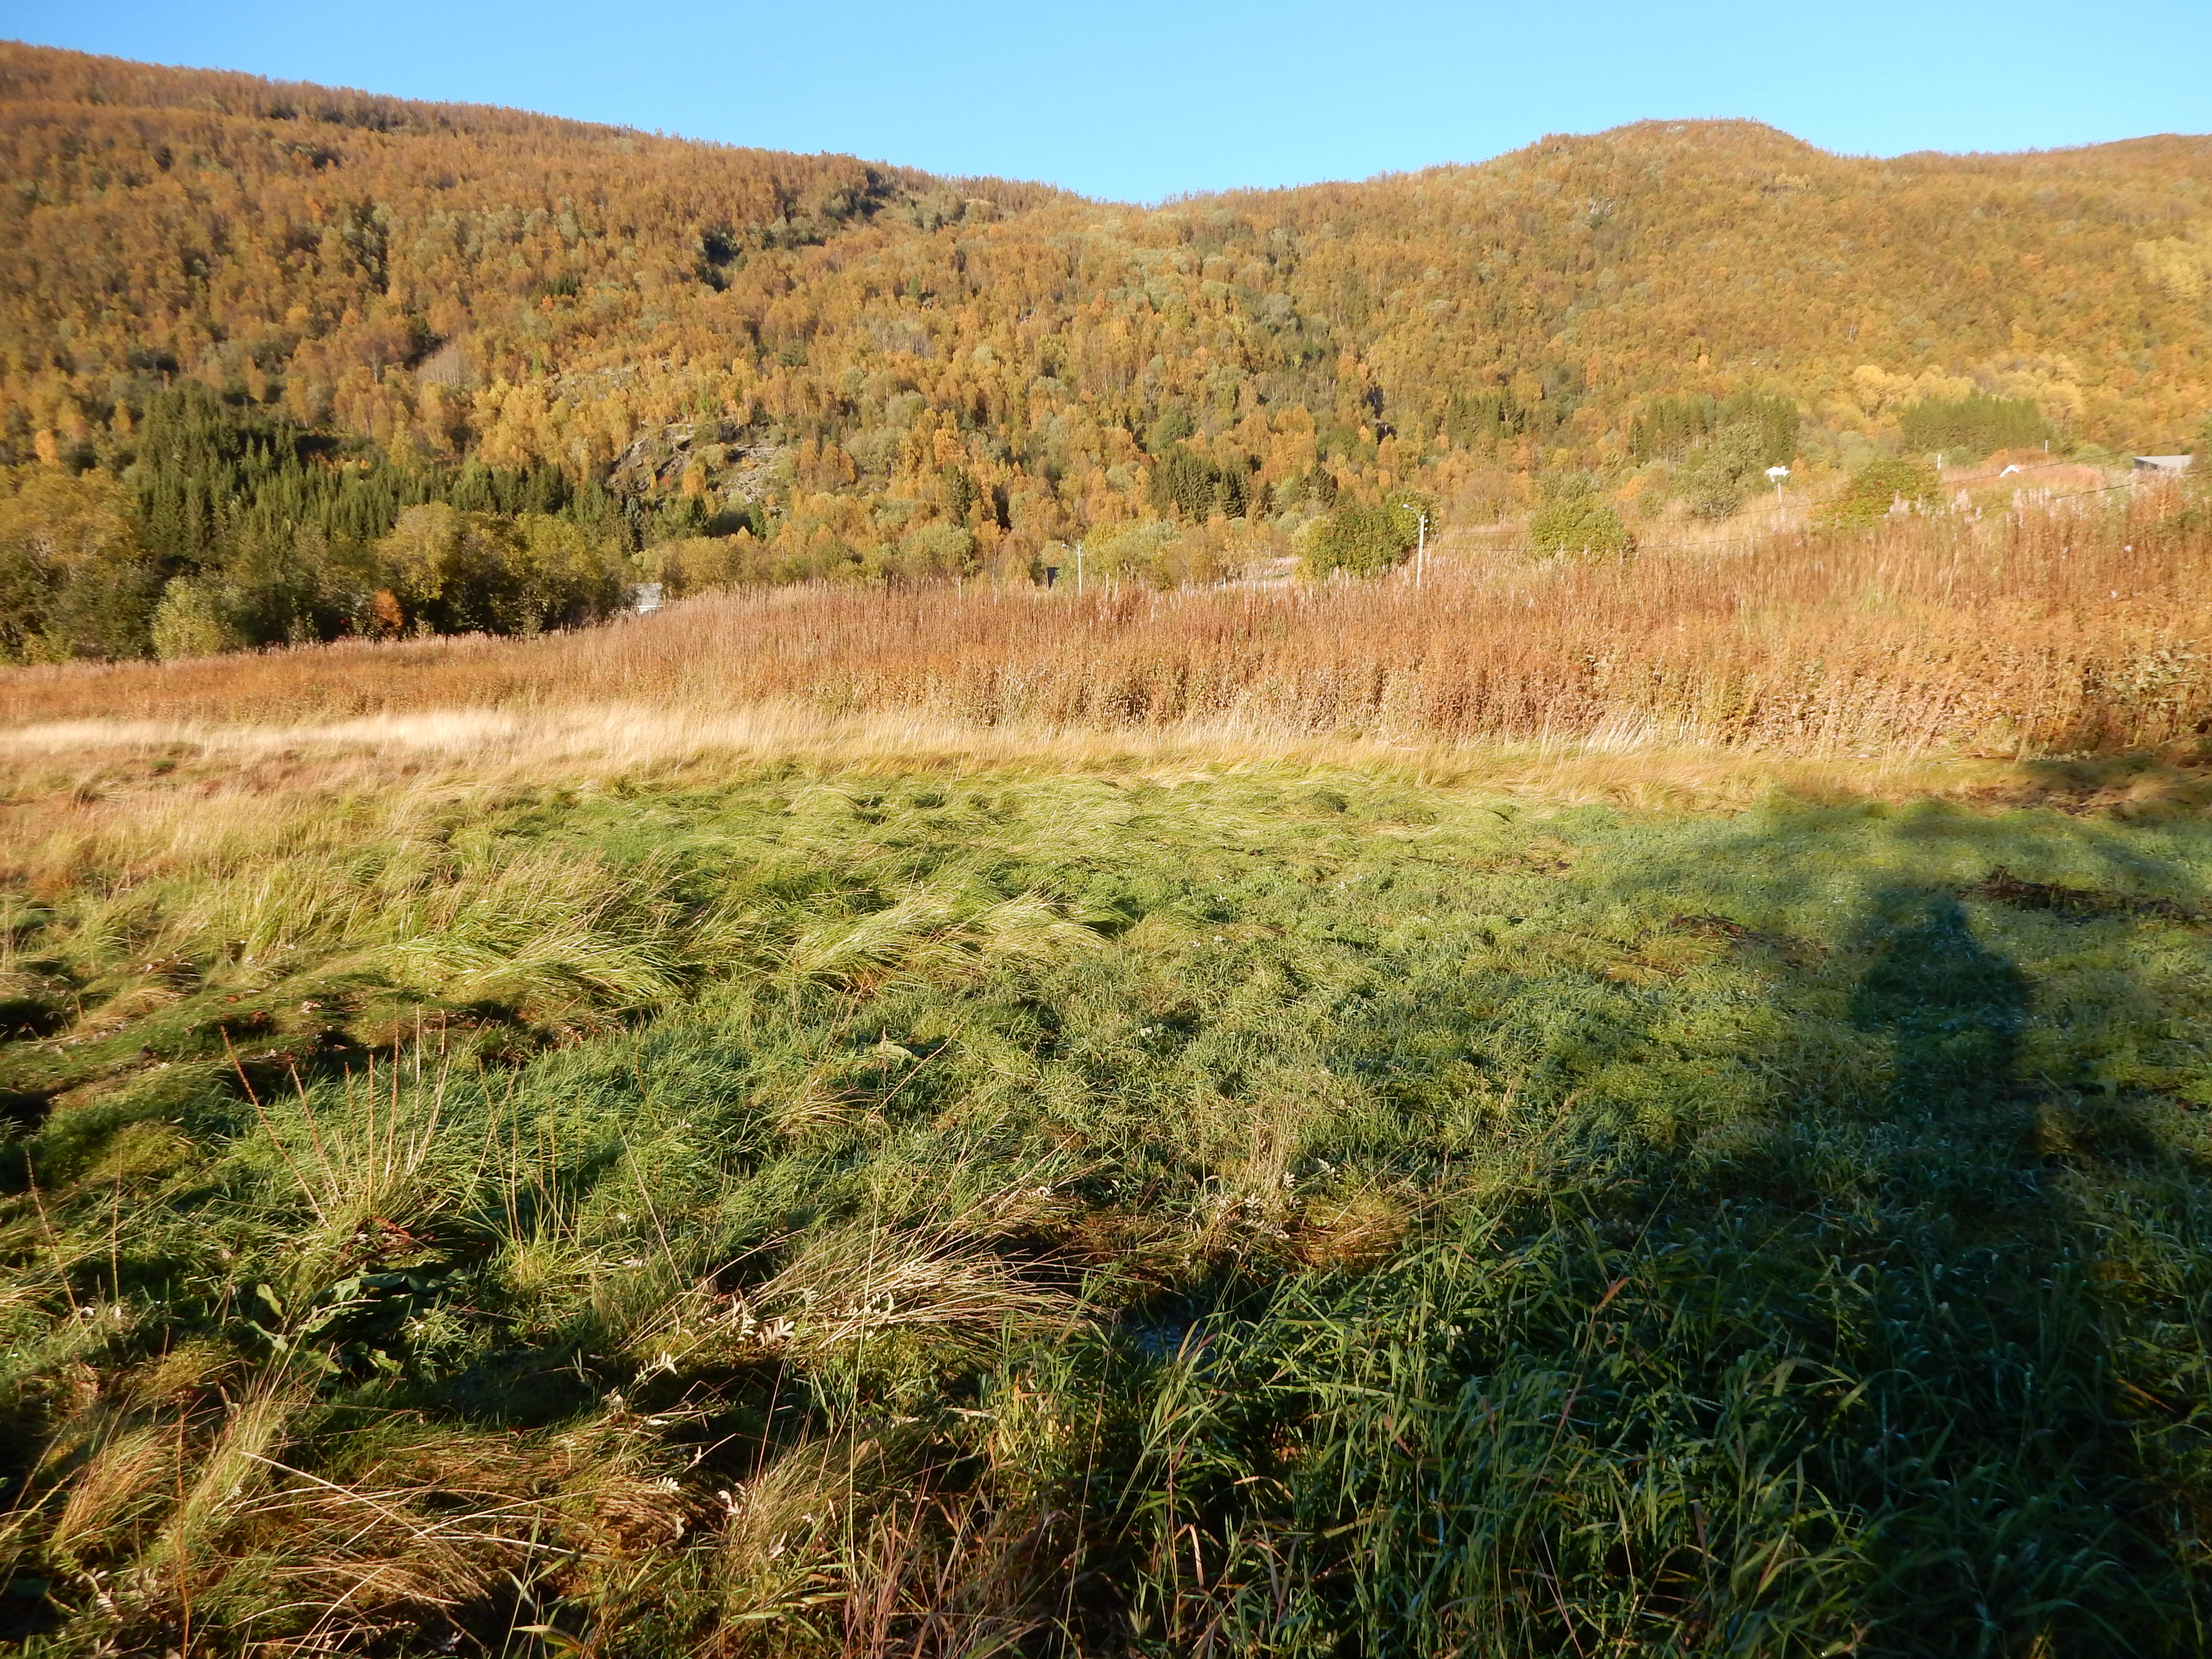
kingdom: Plantae
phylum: Tracheophyta
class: Liliopsida
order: Poales
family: Poaceae
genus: Catabrosa
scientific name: Catabrosa aquatica
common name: Whorl-grass
